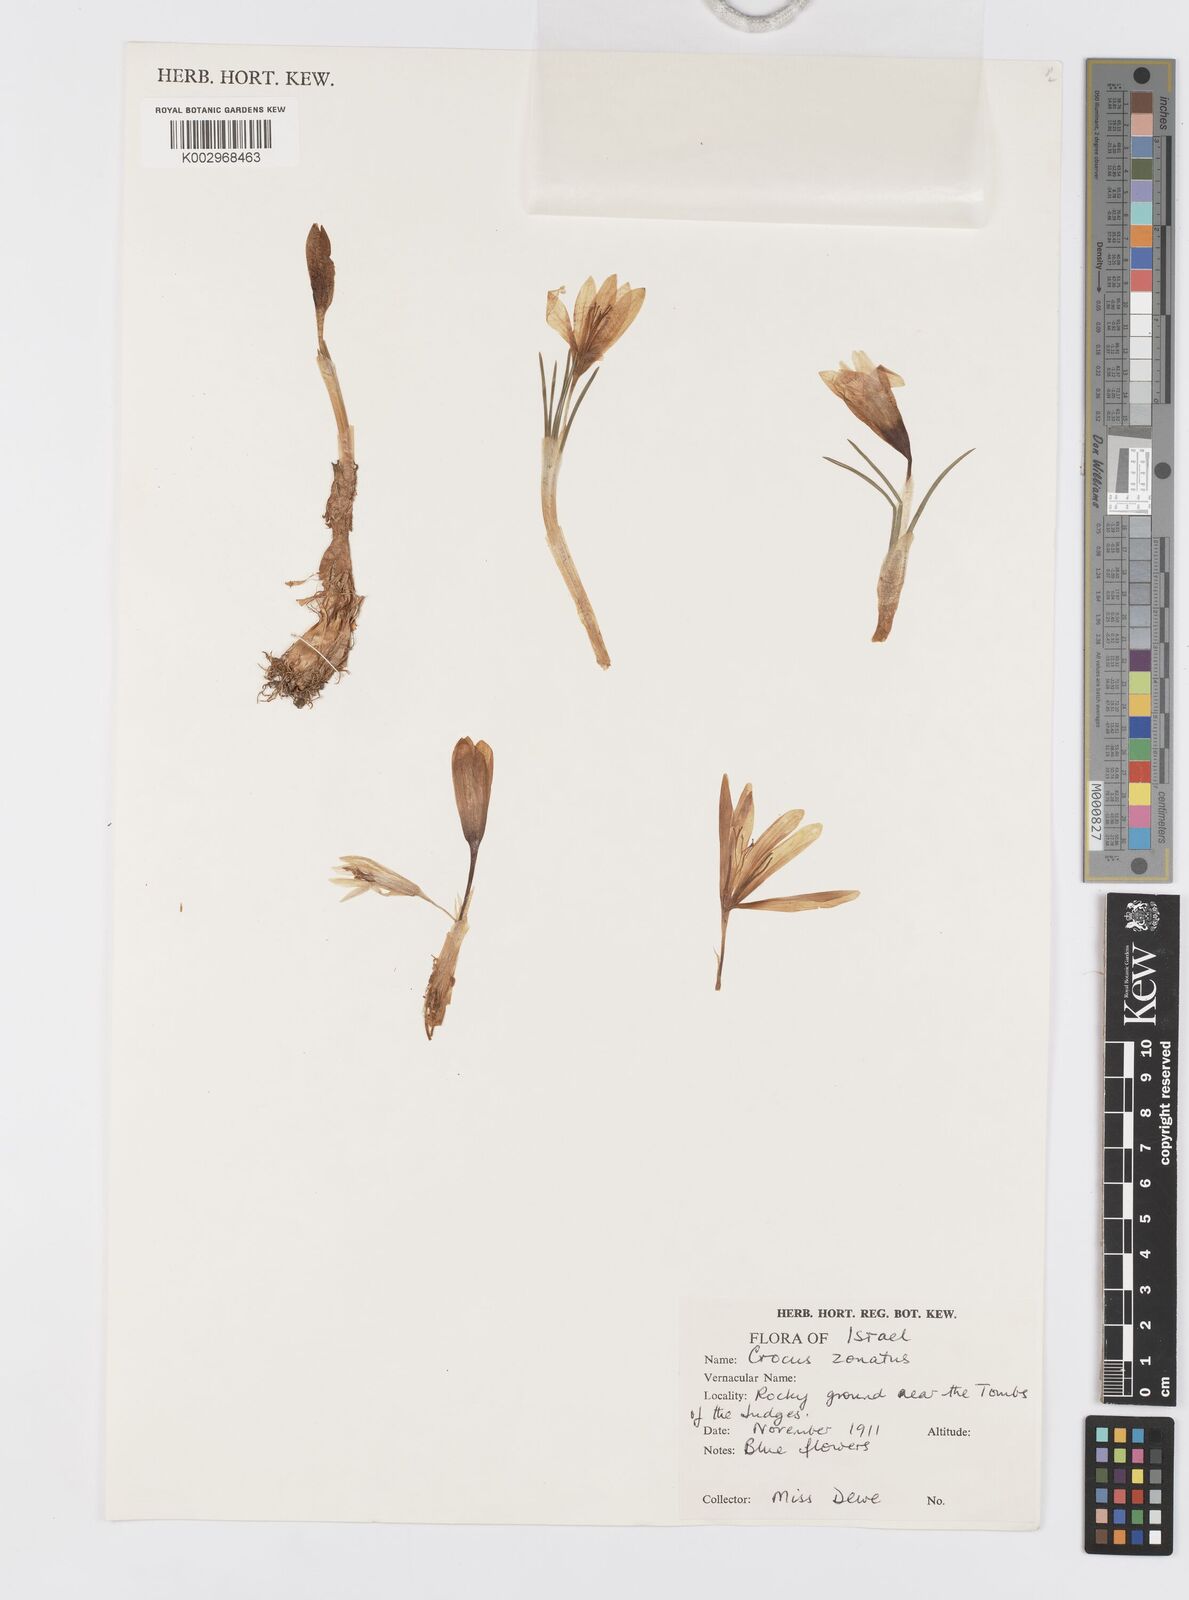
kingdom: Plantae
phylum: Tracheophyta
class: Liliopsida
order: Asparagales
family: Iridaceae
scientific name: Iridaceae
